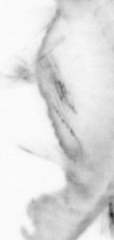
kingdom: Animalia
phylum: Annelida
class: Polychaeta
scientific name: Polychaeta
